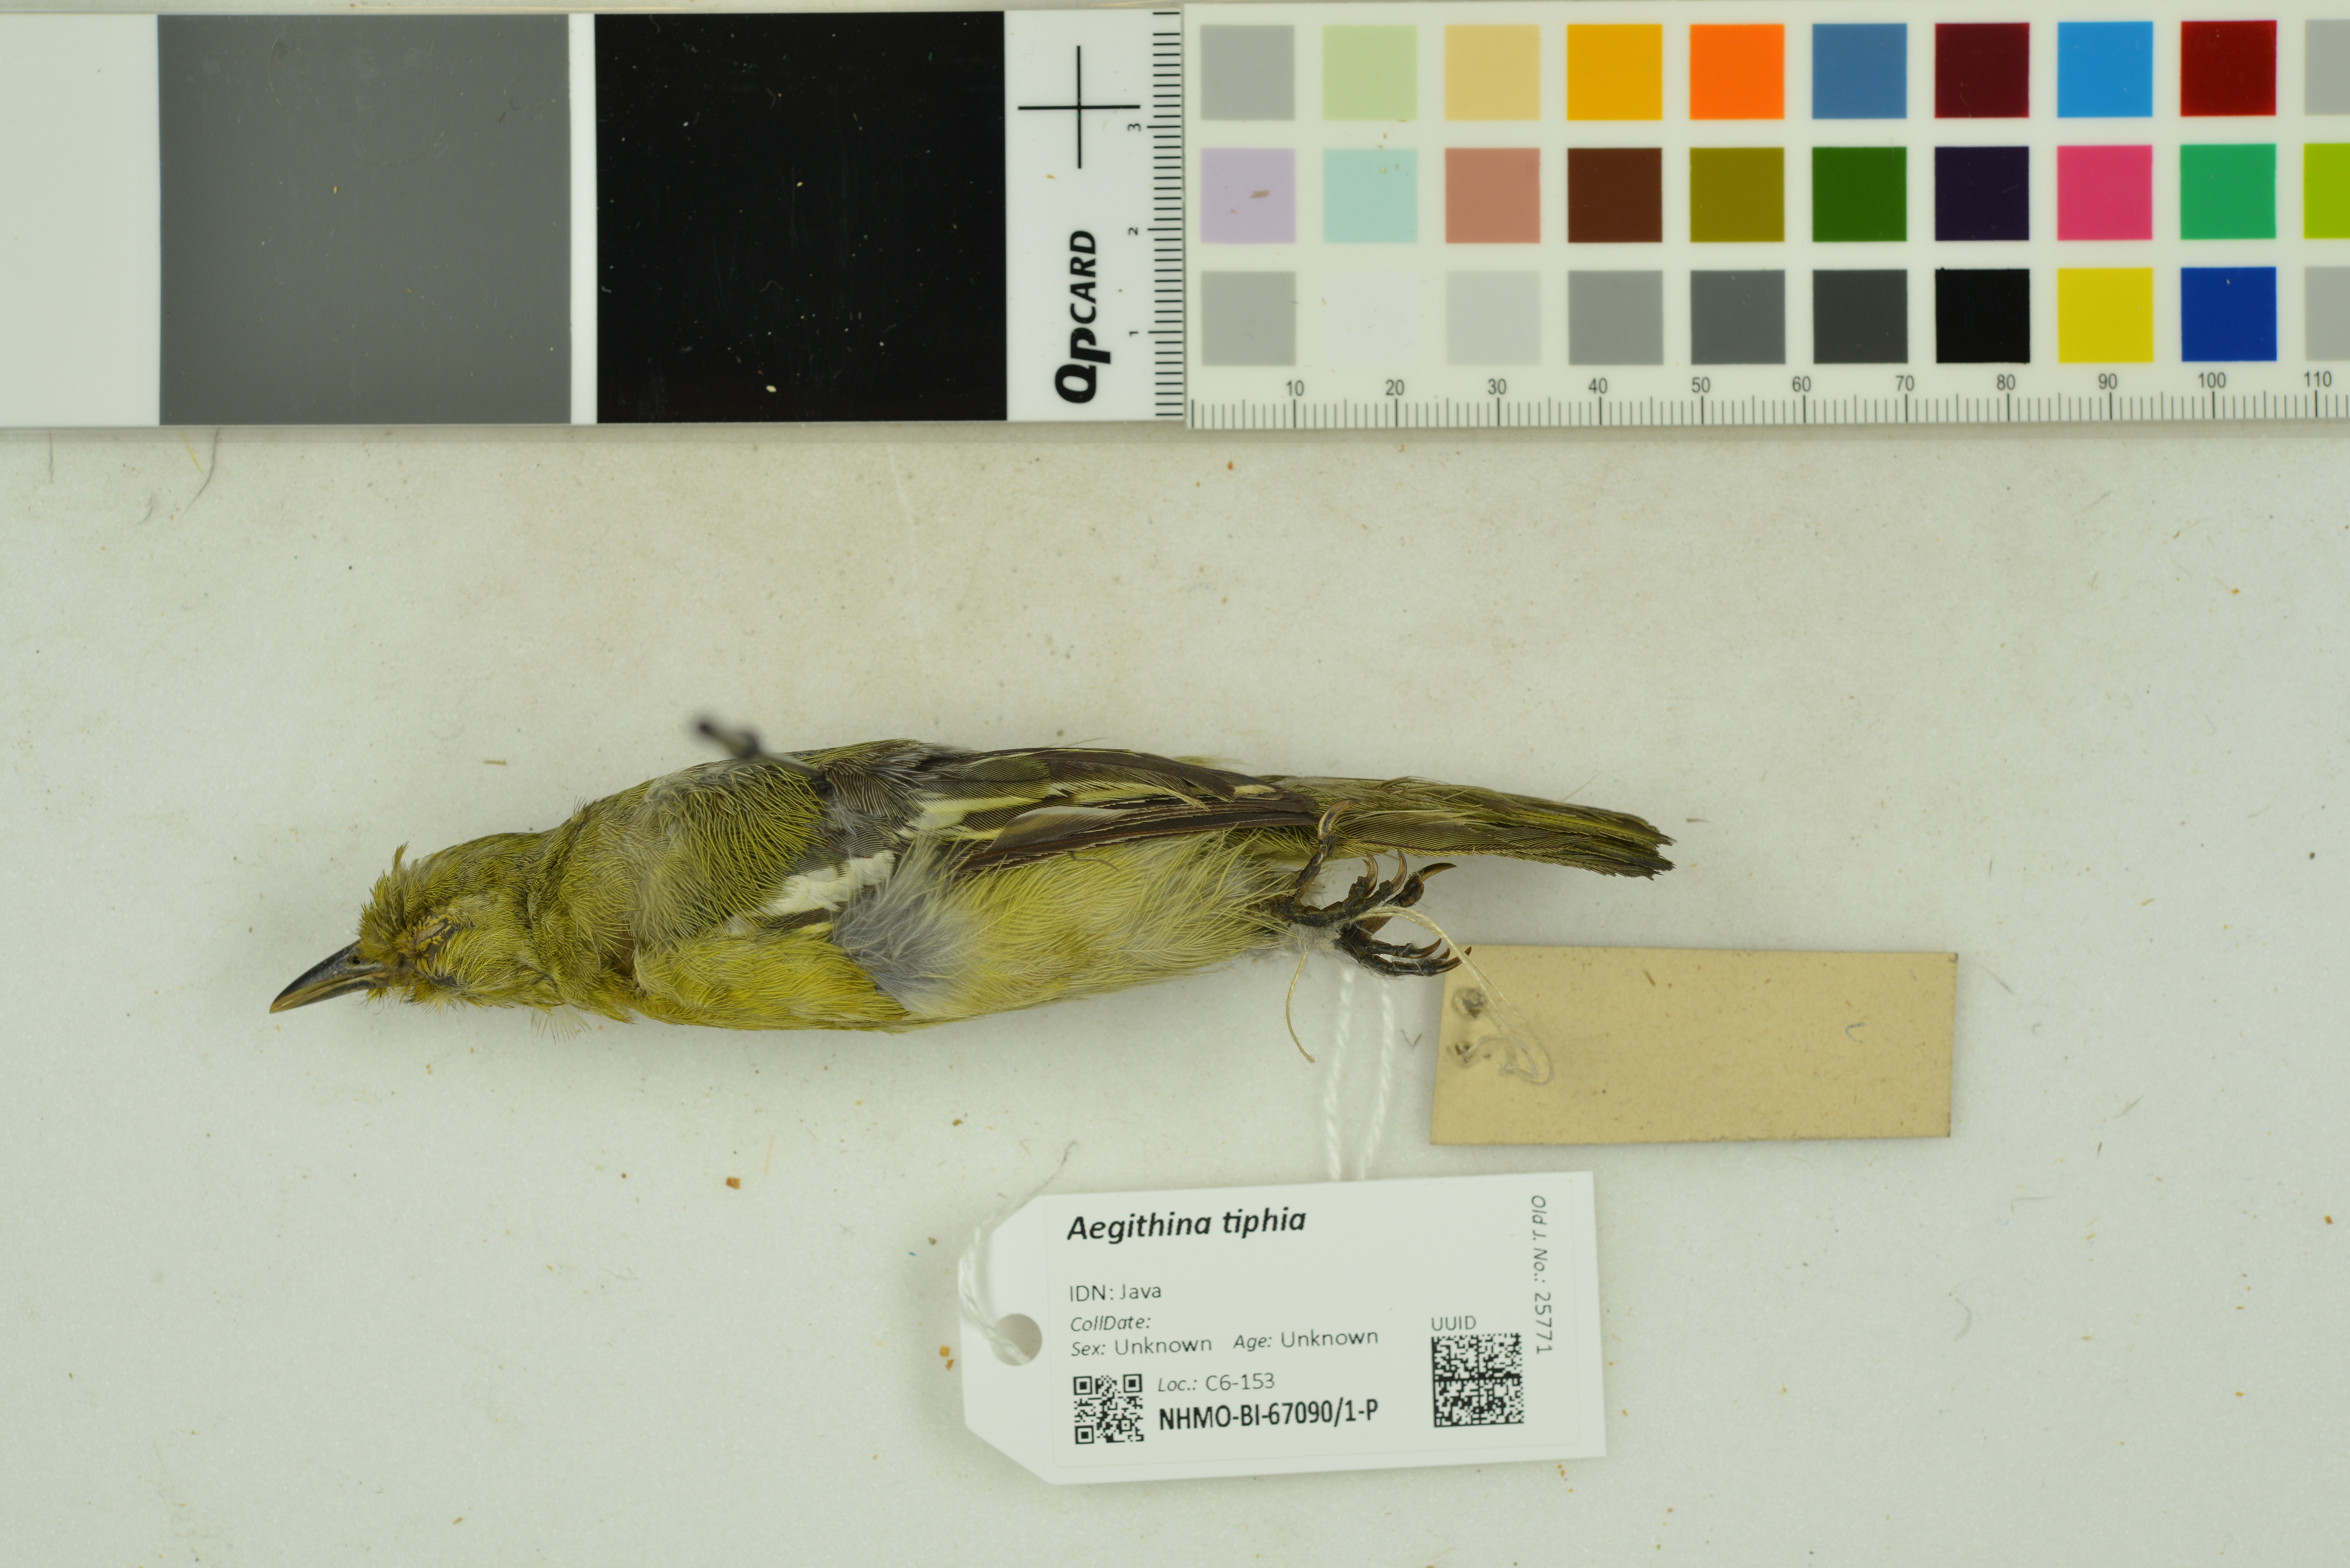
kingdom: Animalia
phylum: Chordata
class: Aves
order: Passeriformes
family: Aegithinidae
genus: Aegithina
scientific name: Aegithina tiphia
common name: Common iora
